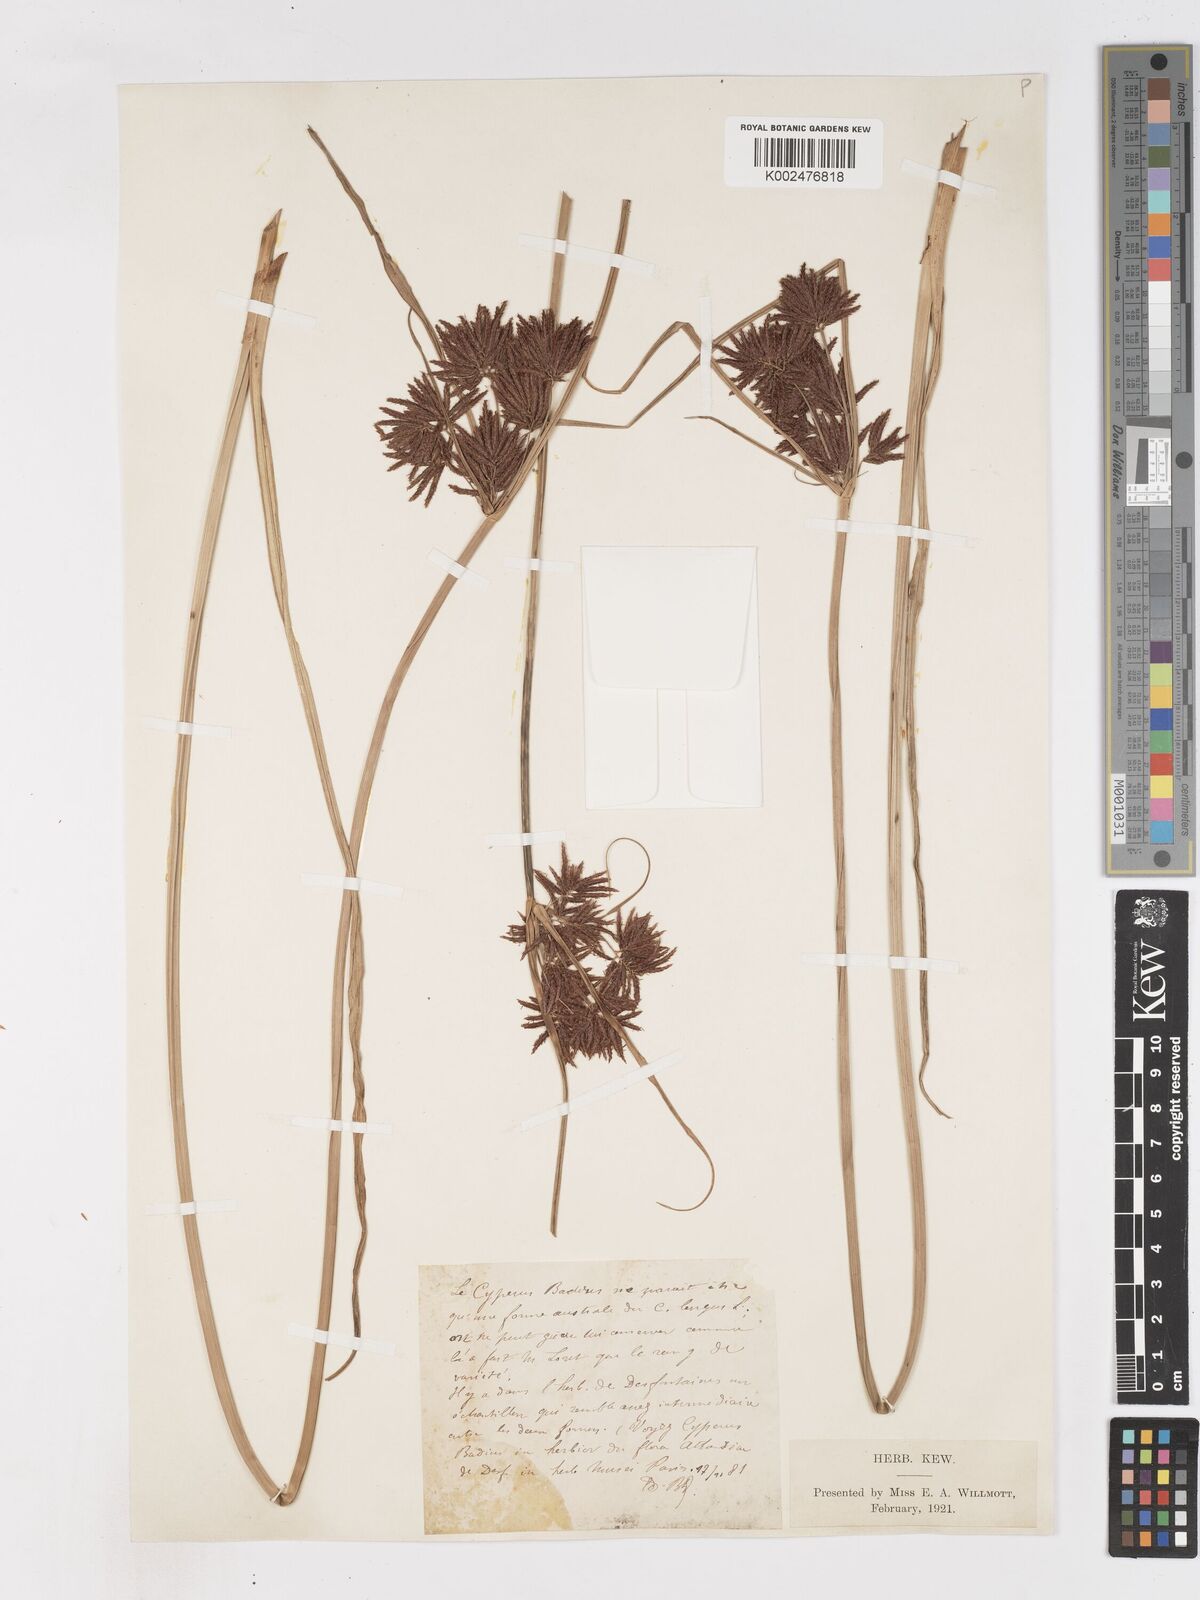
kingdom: Plantae
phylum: Tracheophyta
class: Liliopsida
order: Poales
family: Cyperaceae
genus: Cyperus
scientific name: Cyperus longus
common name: Galingale
